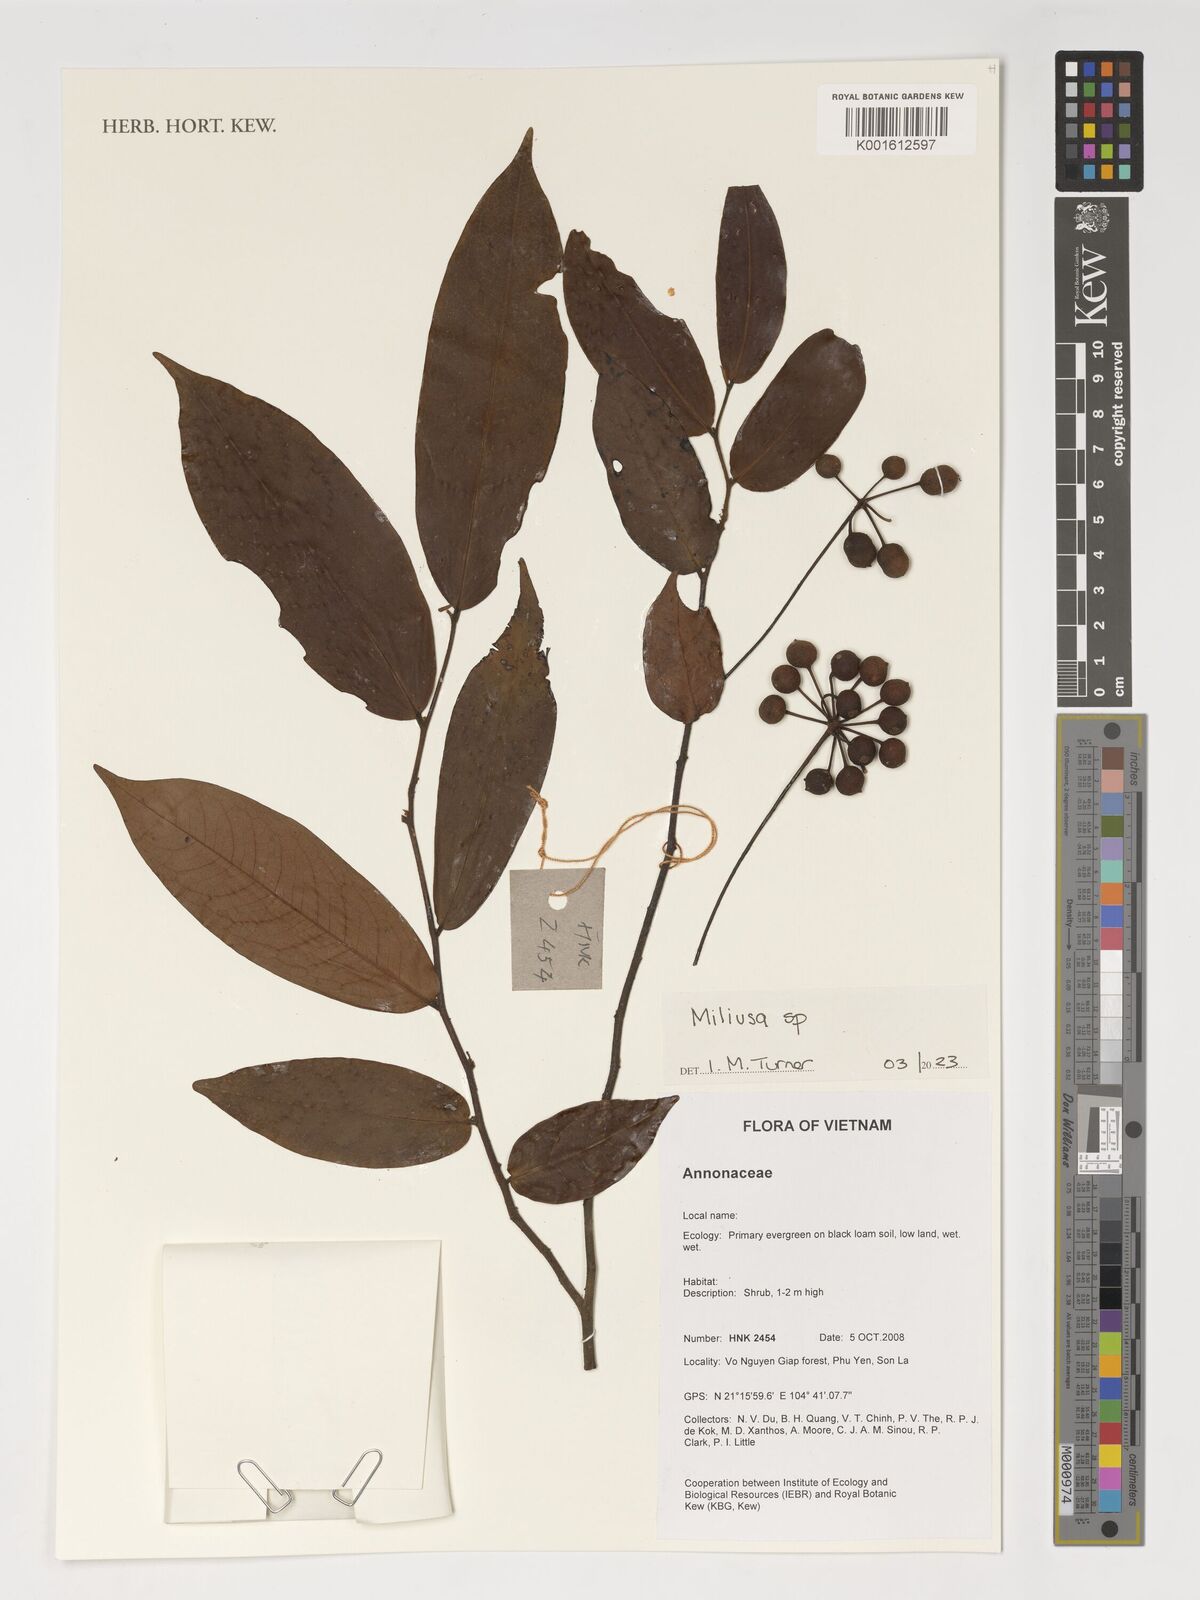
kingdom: Plantae
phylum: Tracheophyta
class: Magnoliopsida
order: Magnoliales
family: Annonaceae
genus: Miliusa
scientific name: Miliusa
